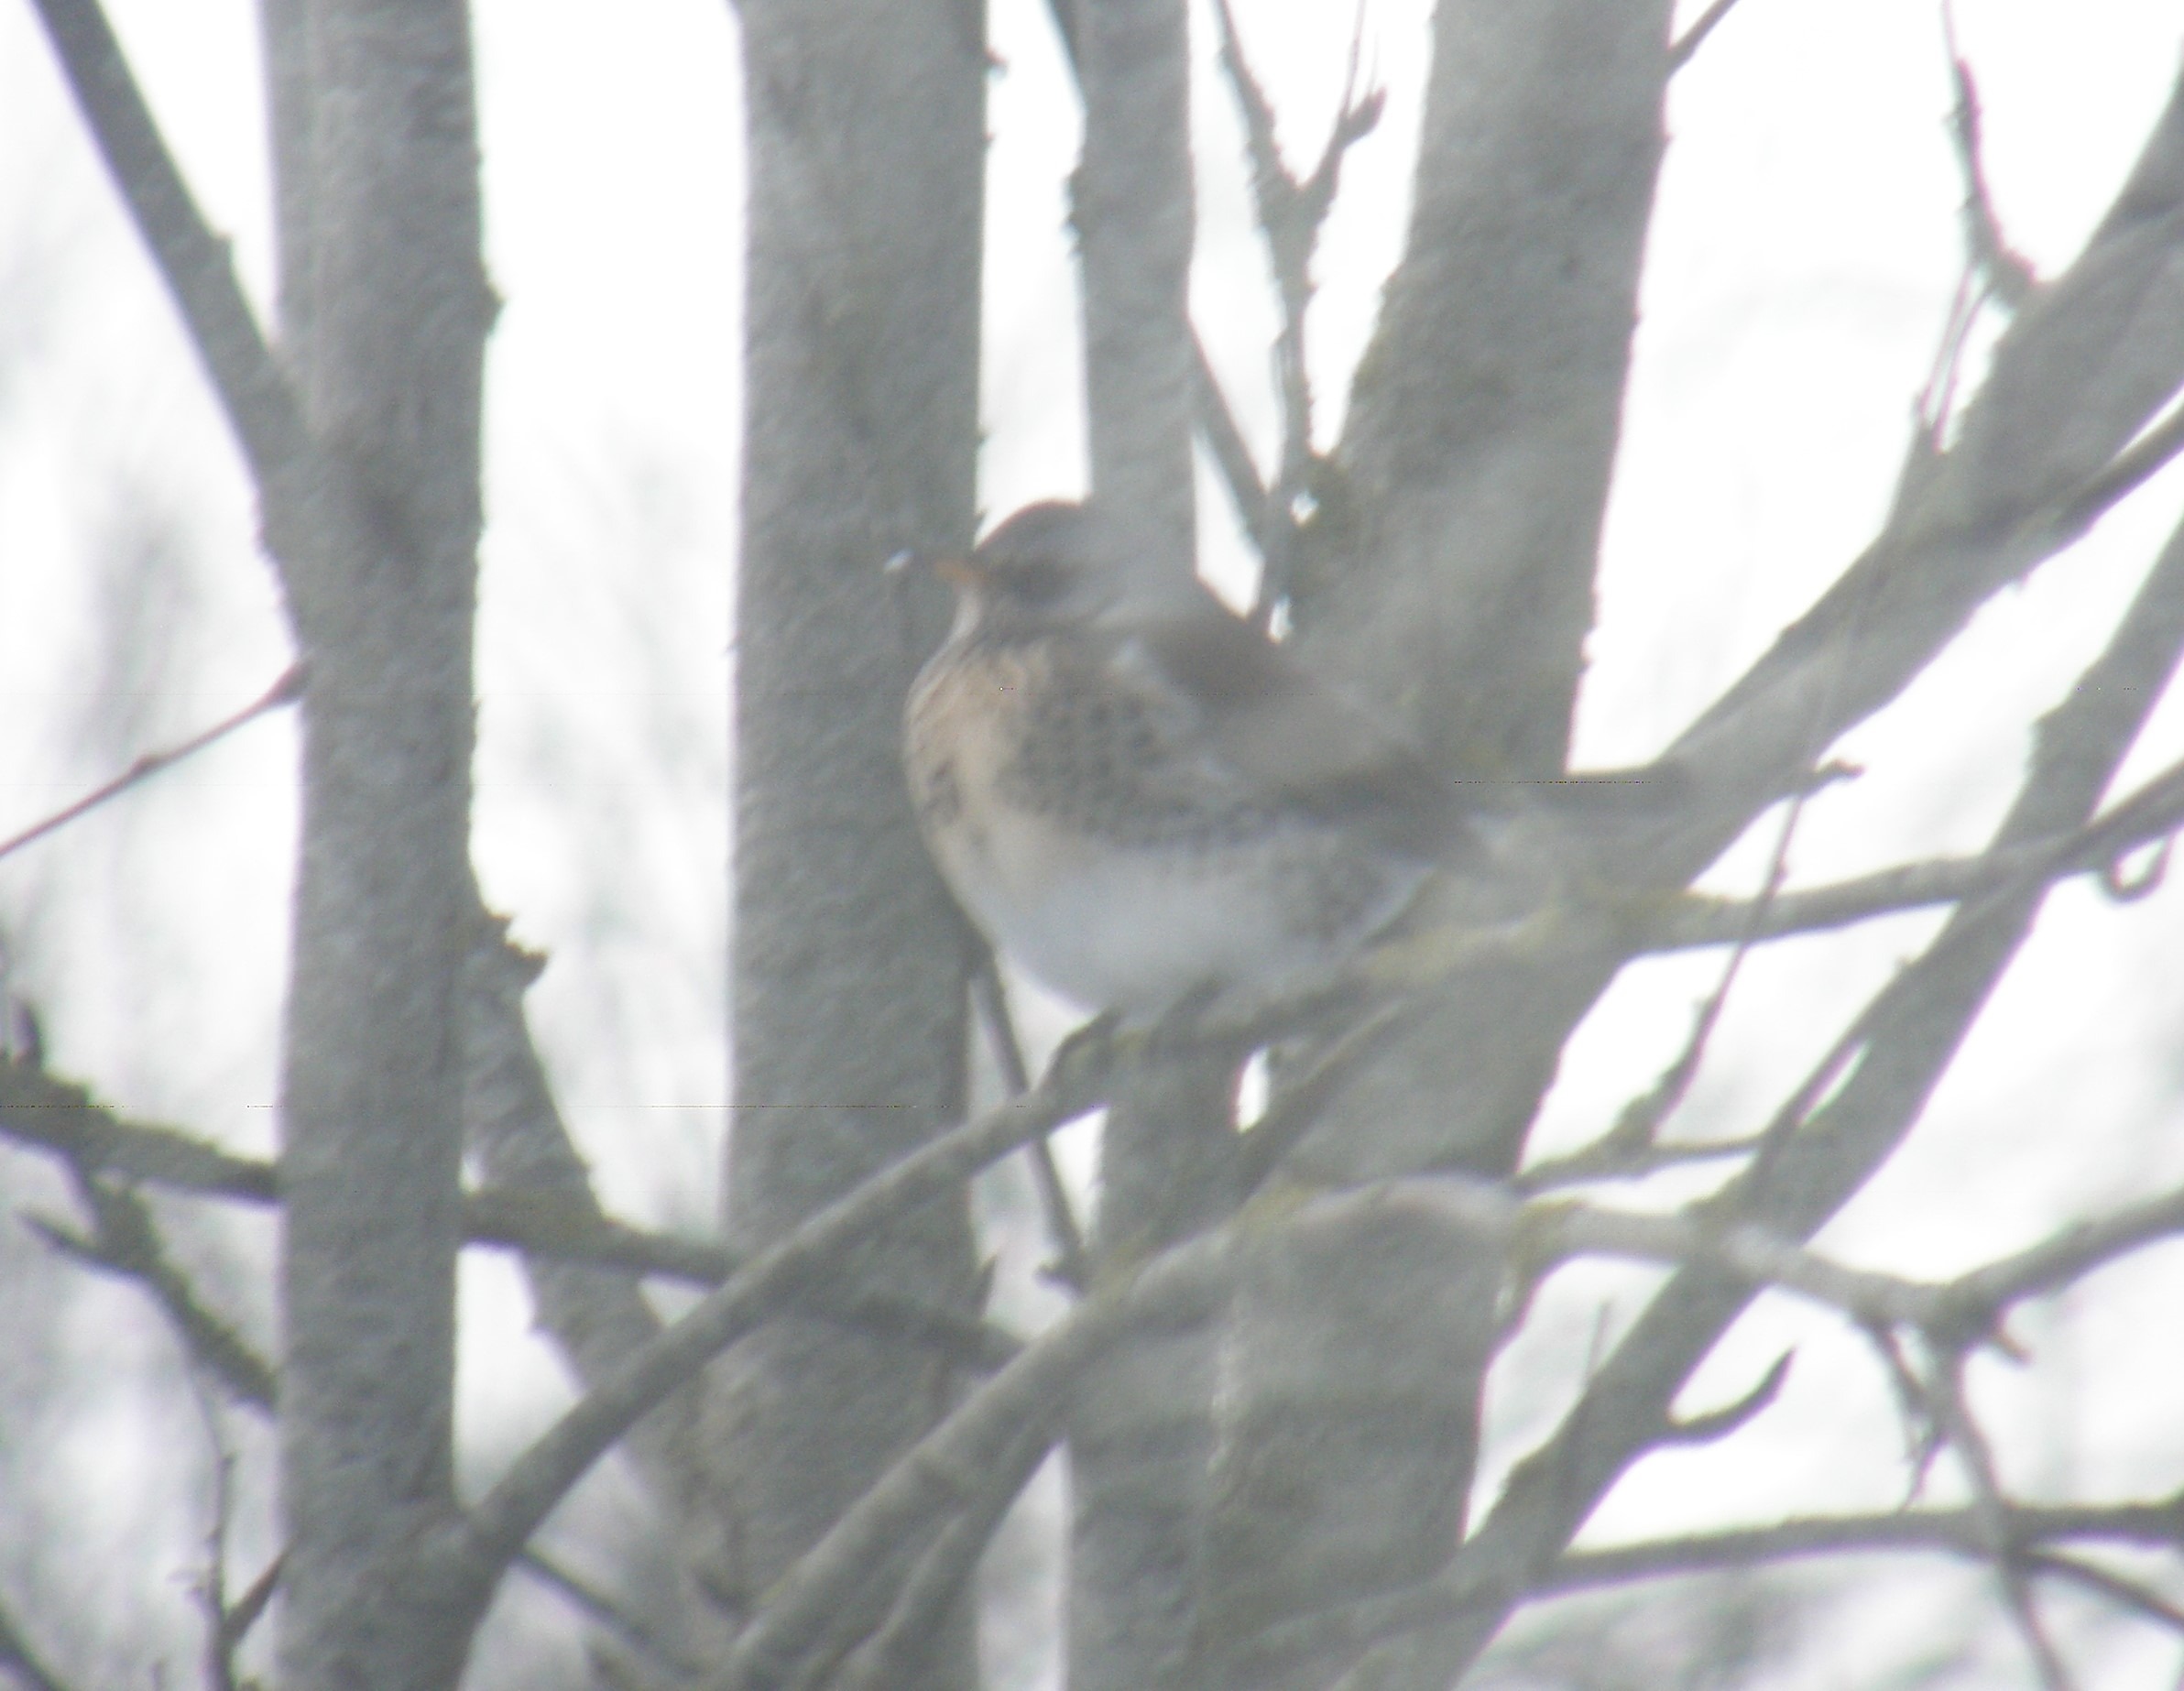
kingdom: Animalia
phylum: Chordata
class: Aves
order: Passeriformes
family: Turdidae
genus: Turdus
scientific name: Turdus pilaris
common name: Sjagger
